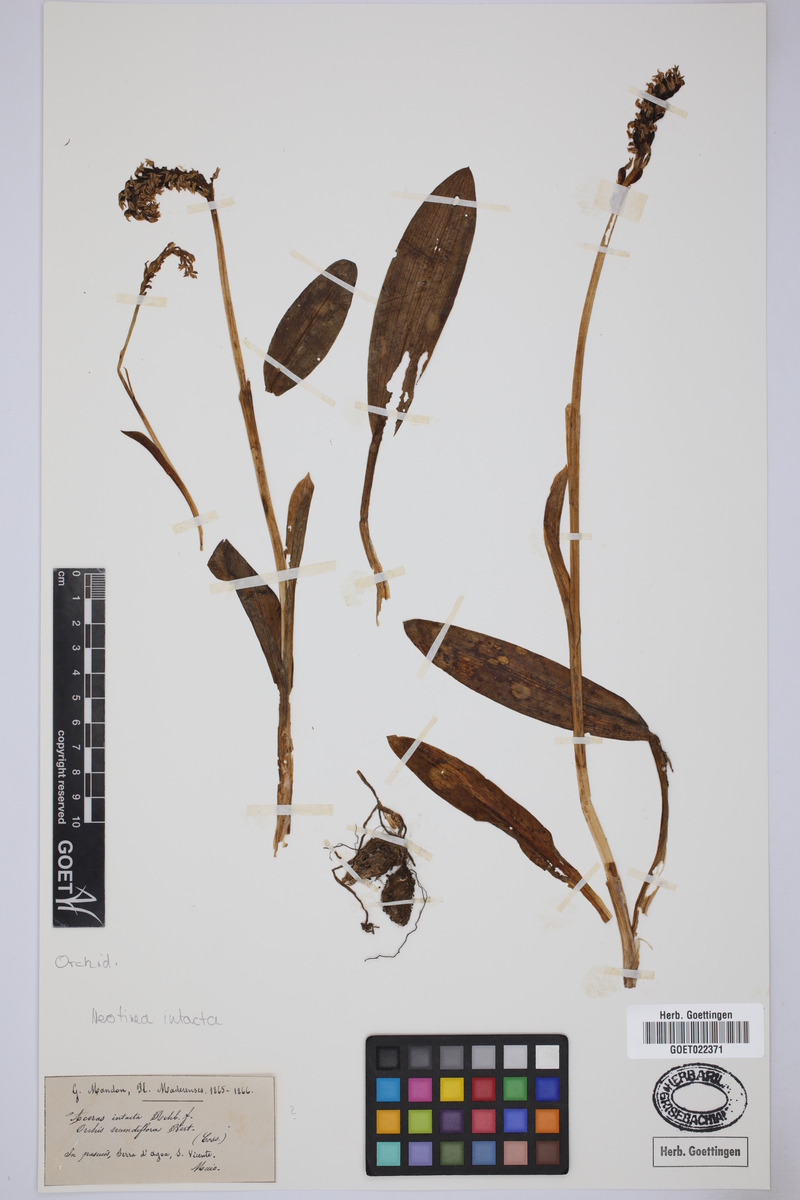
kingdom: Plantae
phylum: Tracheophyta
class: Liliopsida
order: Asparagales
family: Orchidaceae
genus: Neotinea
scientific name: Neotinea maculata
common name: Dense-flowered orchid
